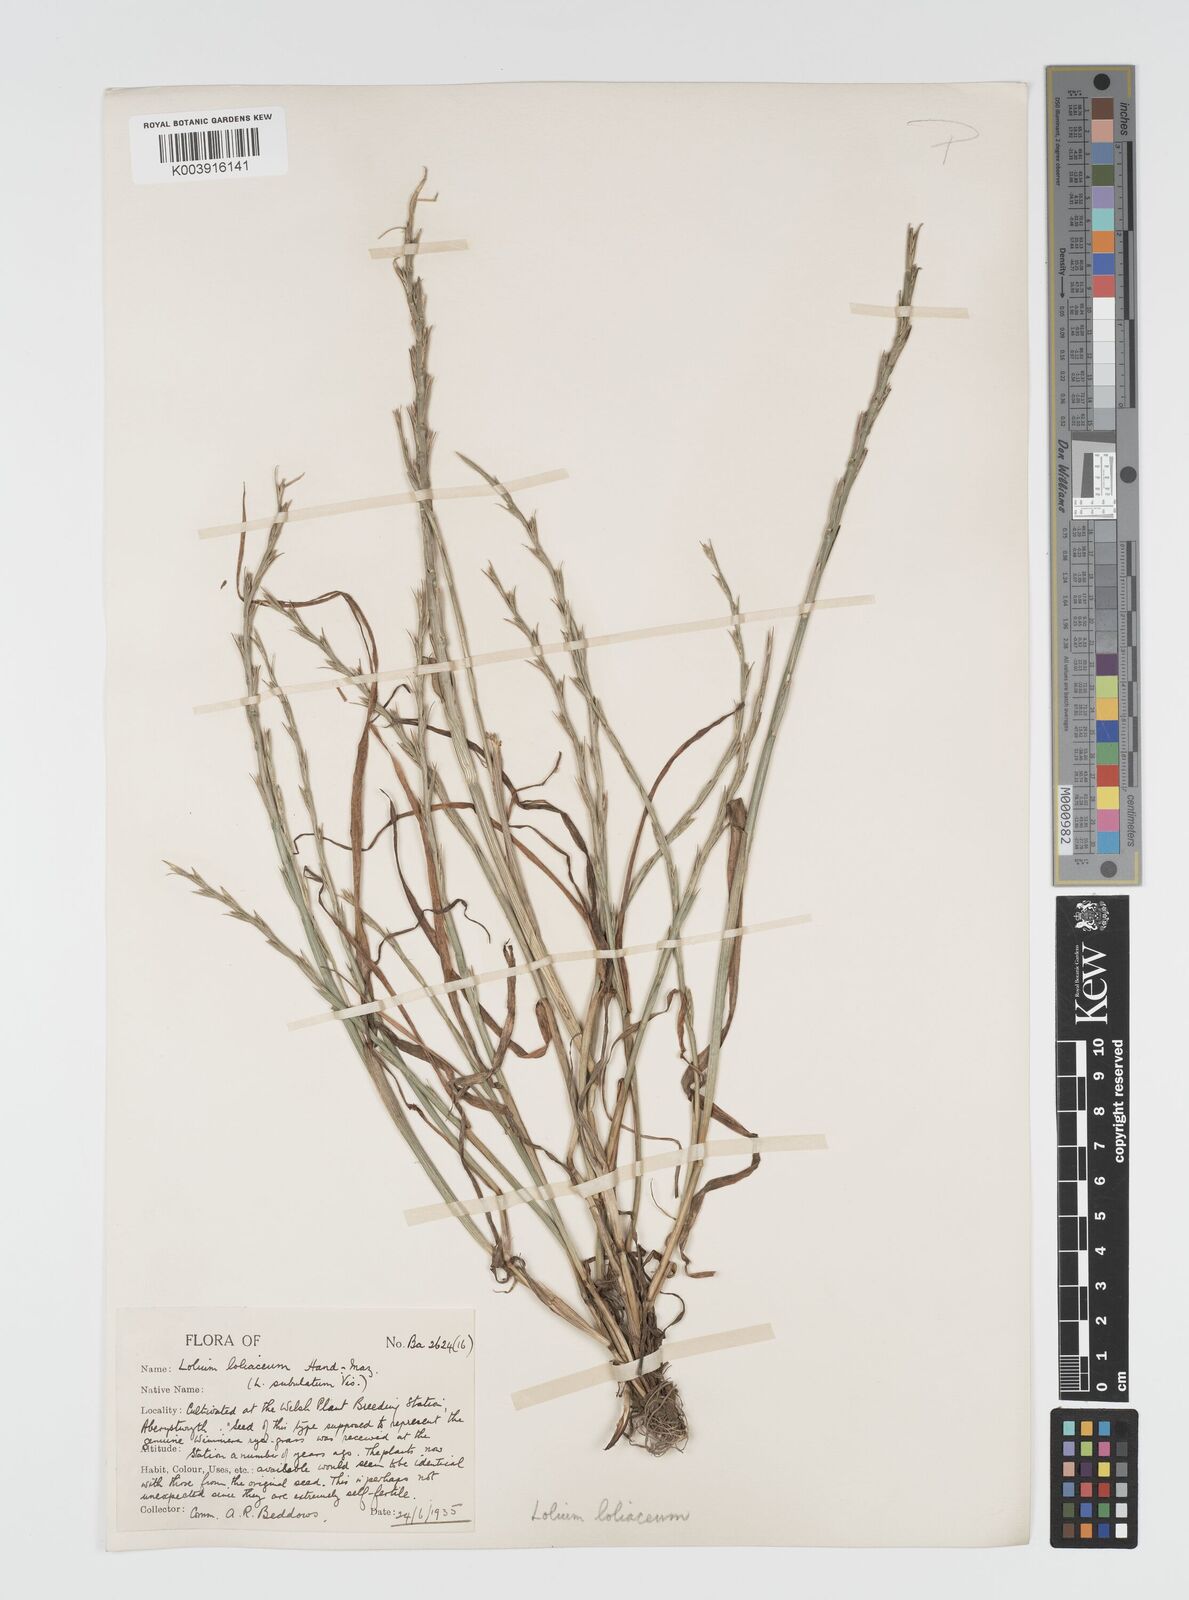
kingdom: Plantae
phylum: Tracheophyta
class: Liliopsida
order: Poales
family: Poaceae
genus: Lolium
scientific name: Lolium rigidum
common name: Wimmera ryegrass
